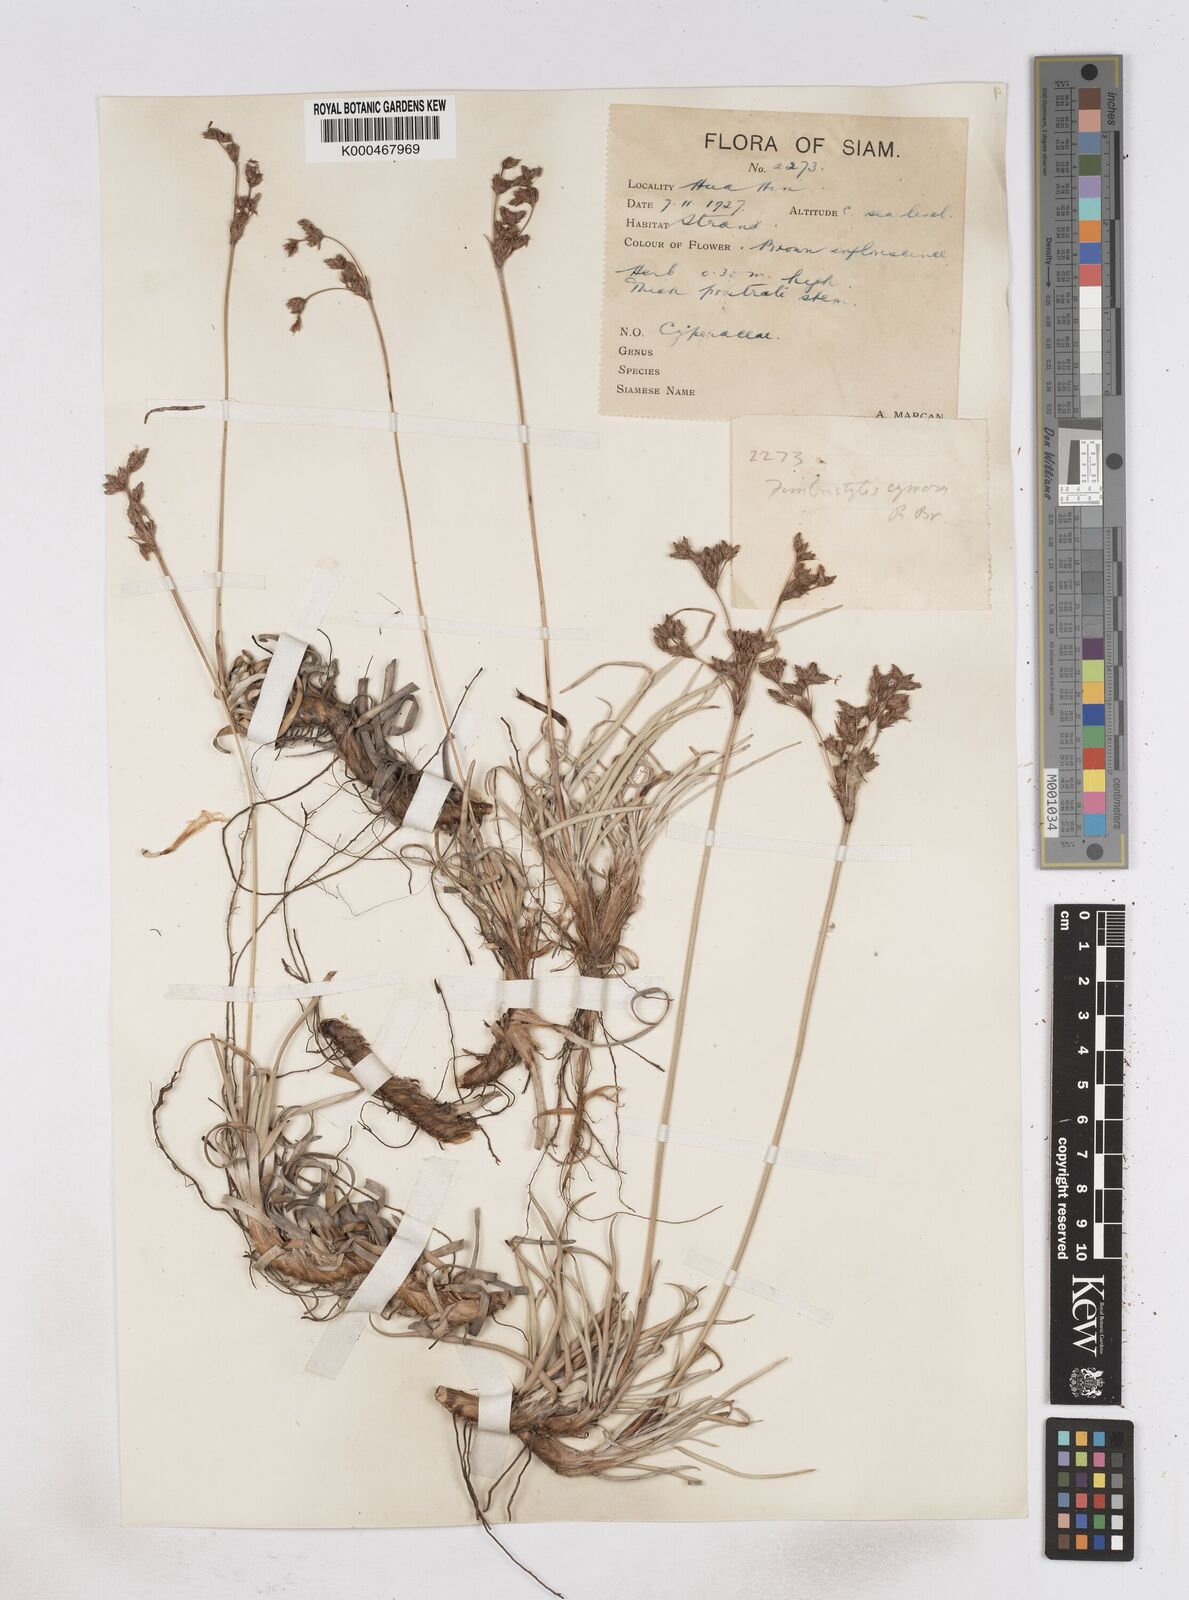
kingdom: Plantae
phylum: Tracheophyta
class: Liliopsida
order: Poales
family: Cyperaceae
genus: Fimbristylis
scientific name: Fimbristylis sericea
